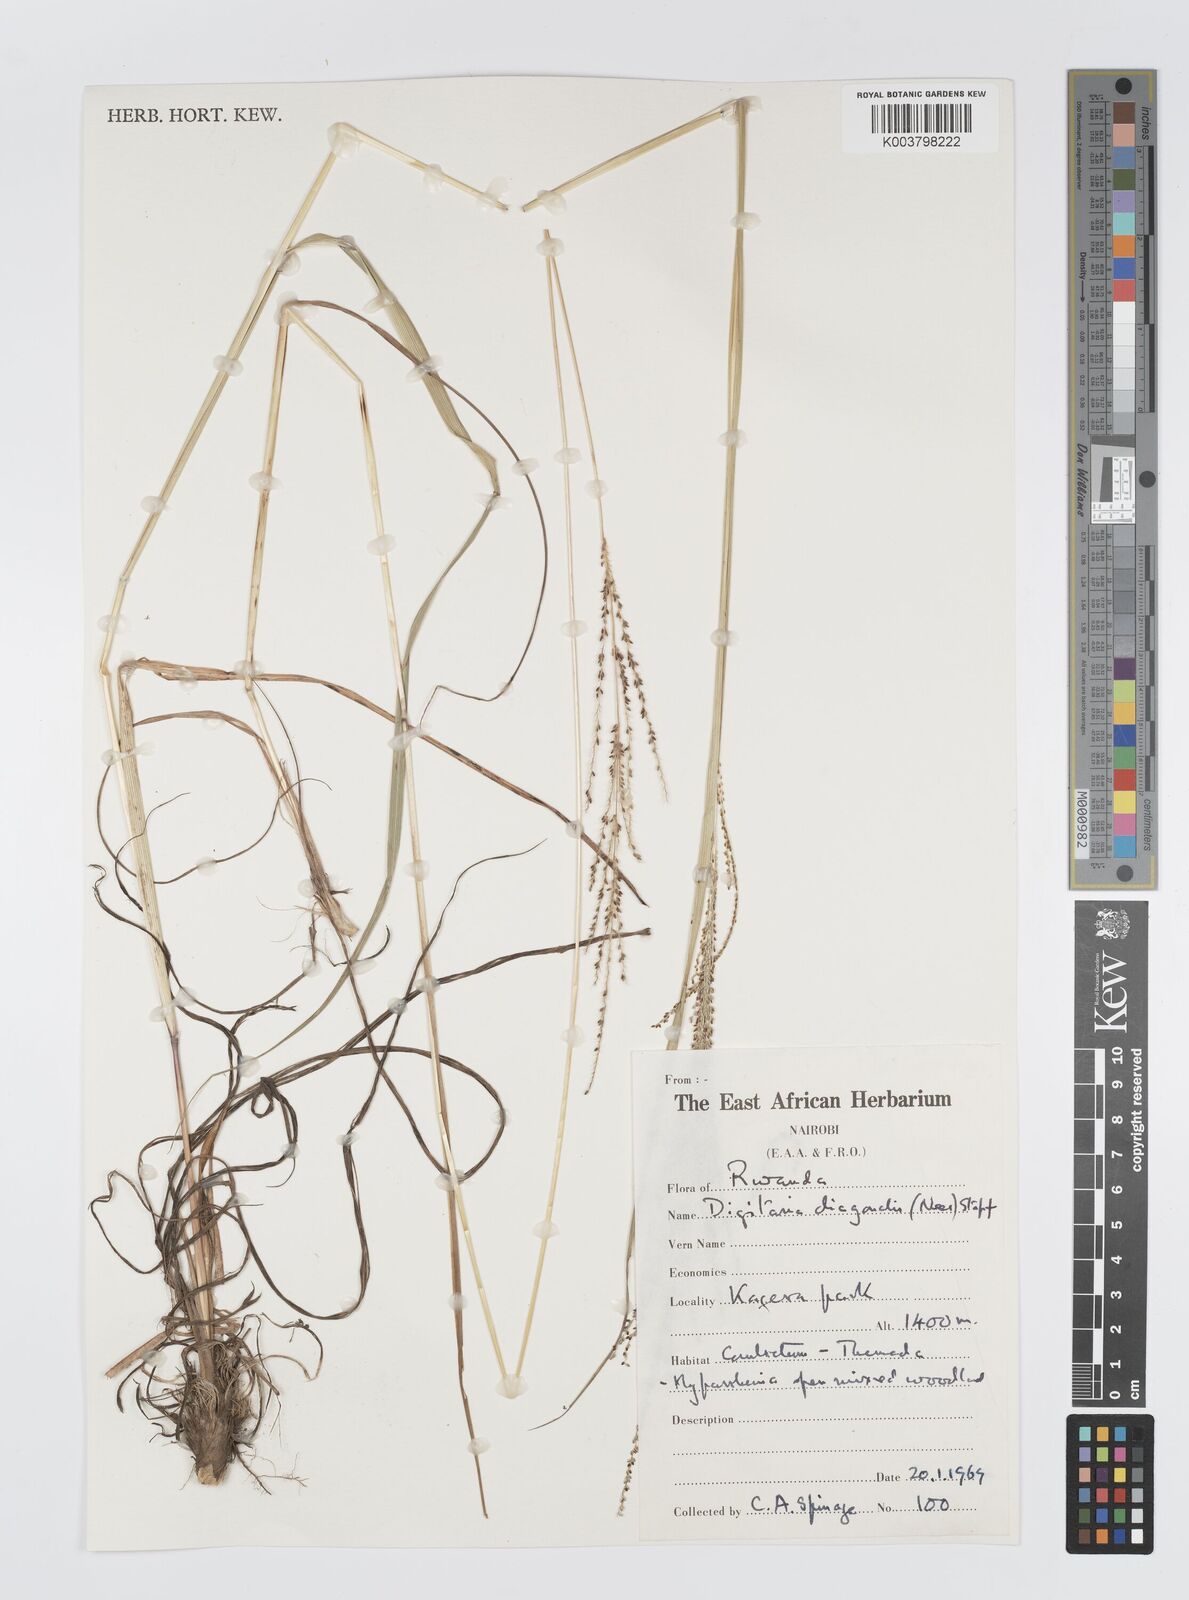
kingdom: Plantae
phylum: Tracheophyta
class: Liliopsida
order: Poales
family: Poaceae
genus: Digitaria
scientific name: Digitaria diagonalis
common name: Brown-seed finger grass
